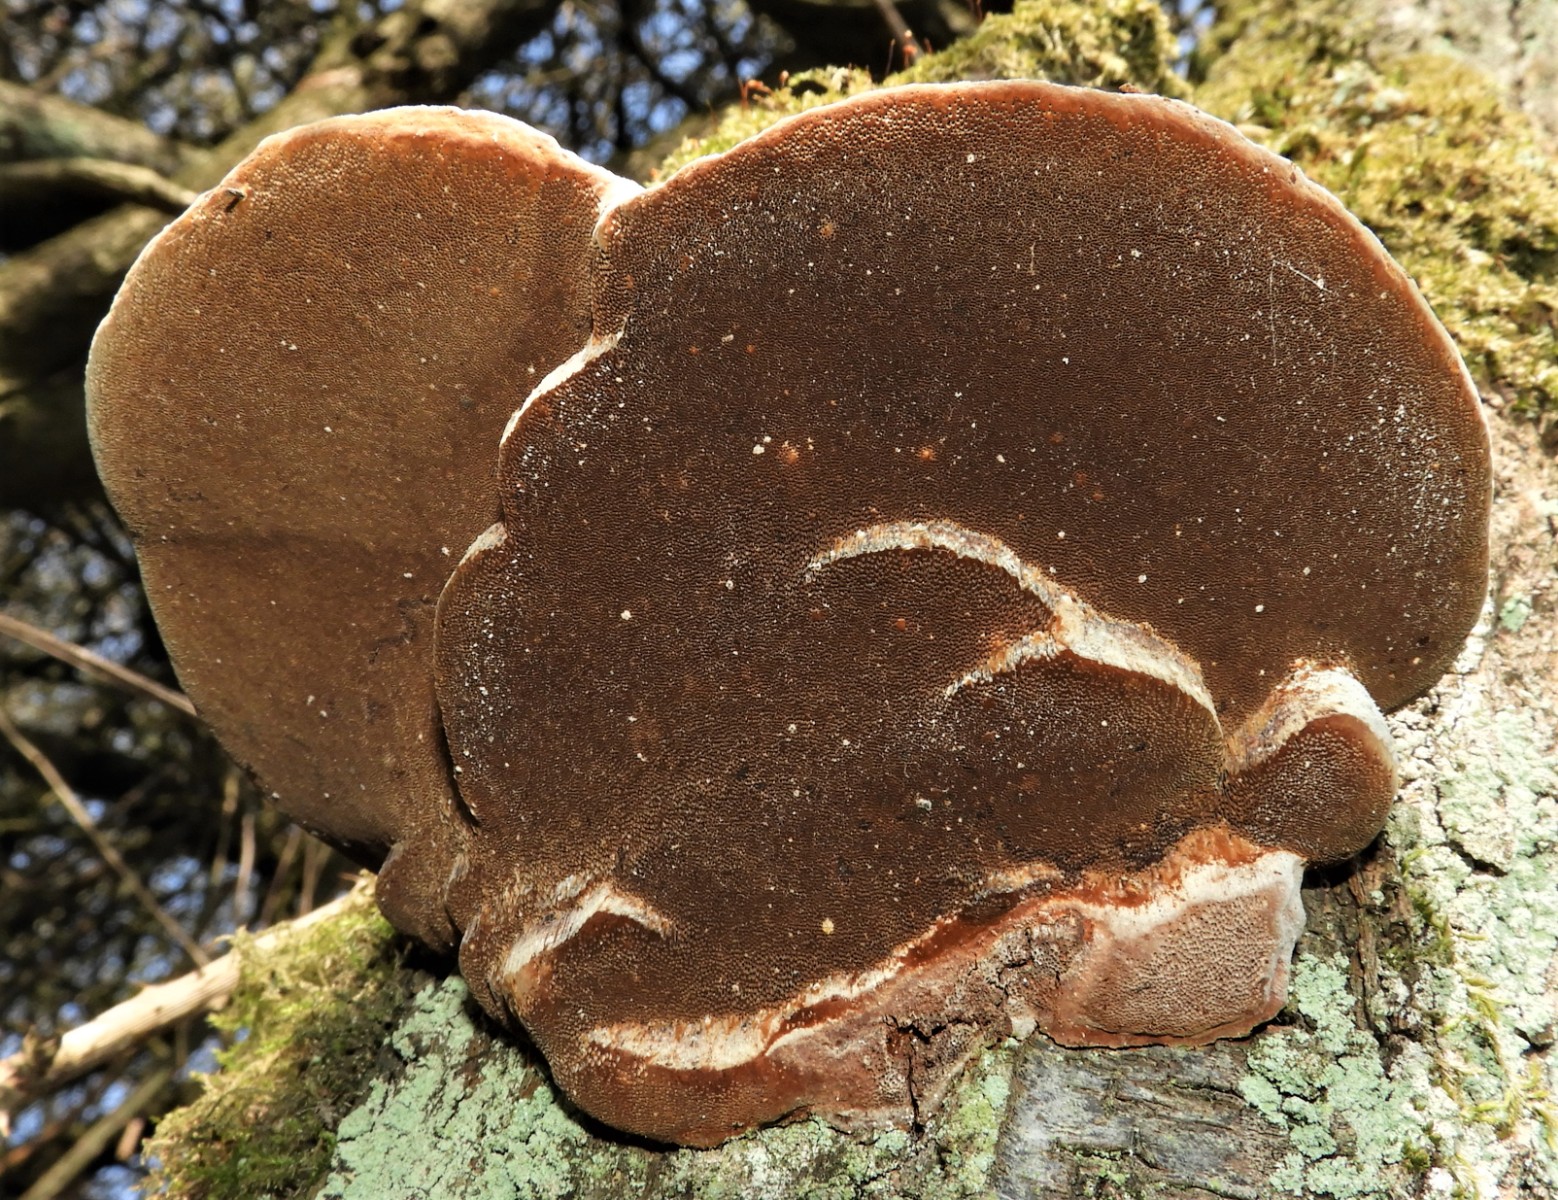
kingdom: Fungi
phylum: Basidiomycota
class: Agaricomycetes
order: Hymenochaetales
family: Hymenochaetaceae
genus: Phellinus
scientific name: Phellinus populicola
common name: poppel-ildporesvamp
